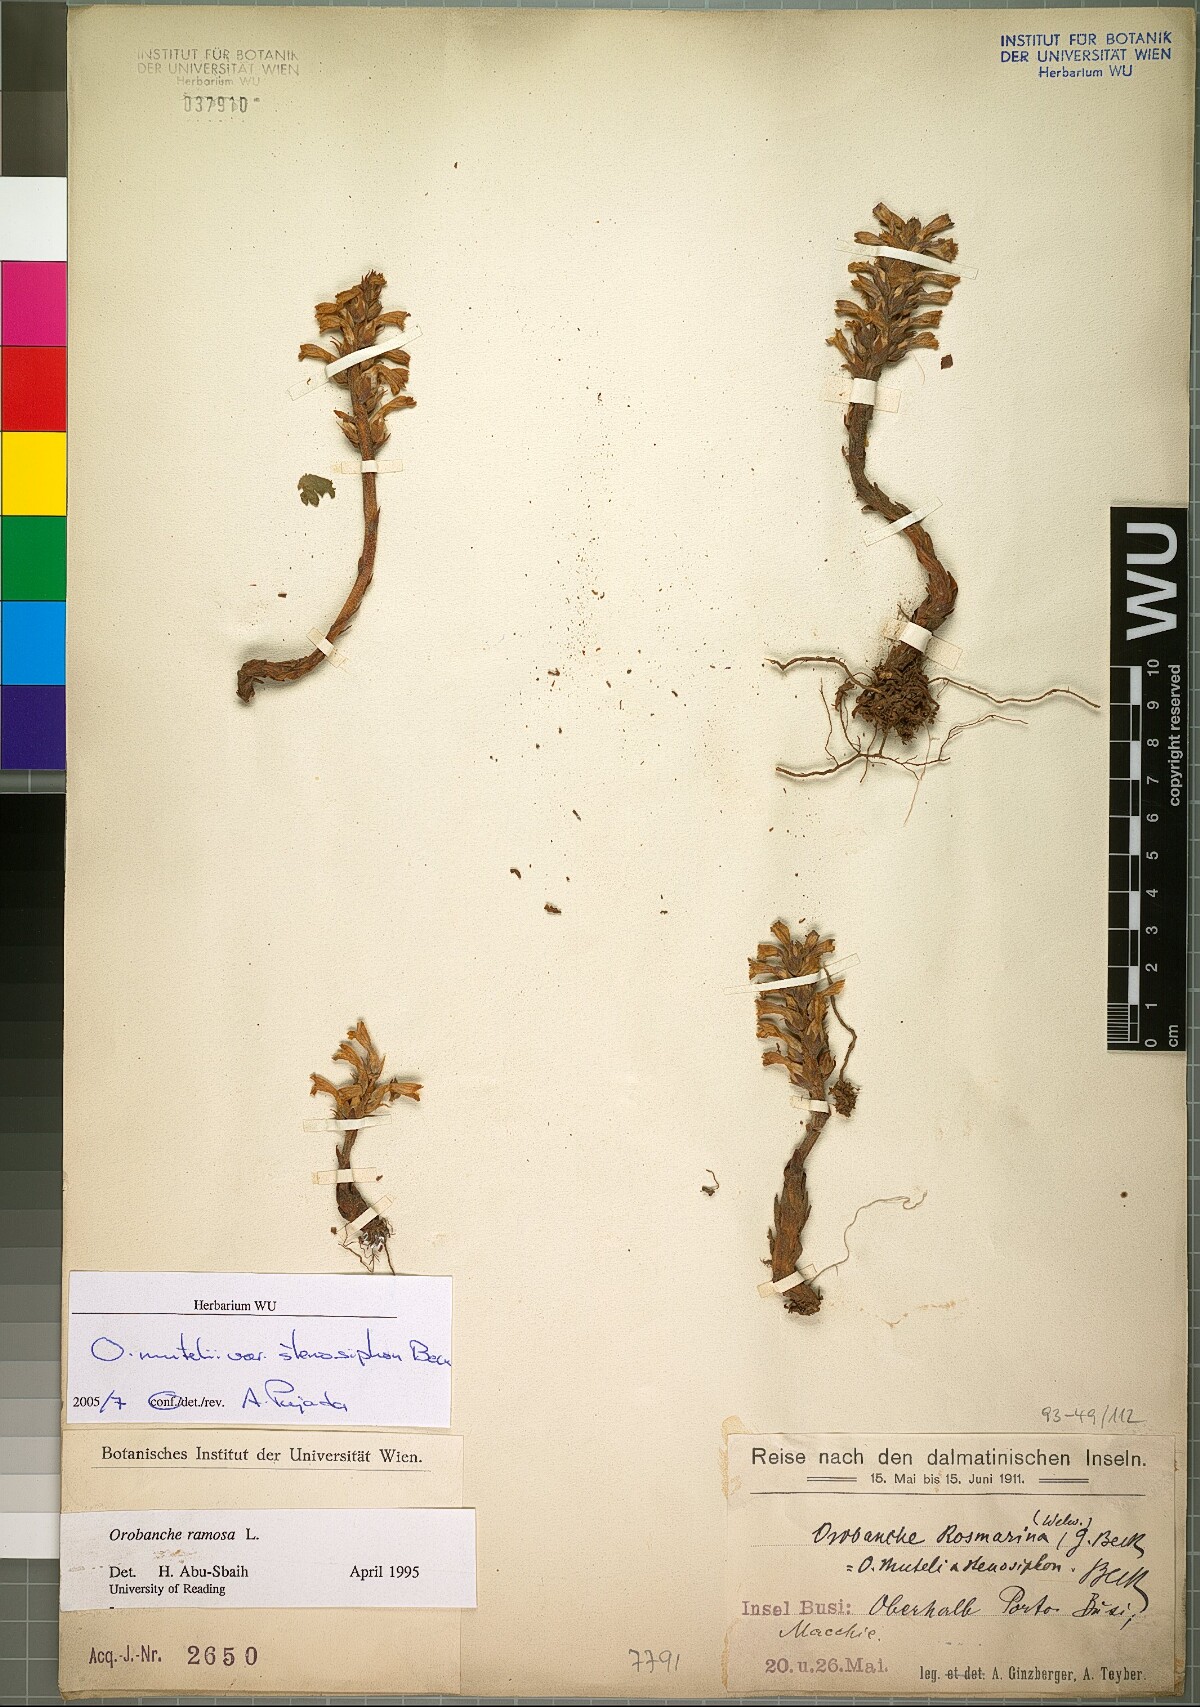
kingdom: Plantae
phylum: Tracheophyta
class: Magnoliopsida
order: Lamiales
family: Orobanchaceae
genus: Phelipanche
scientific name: Phelipanche pseudorosmarina
